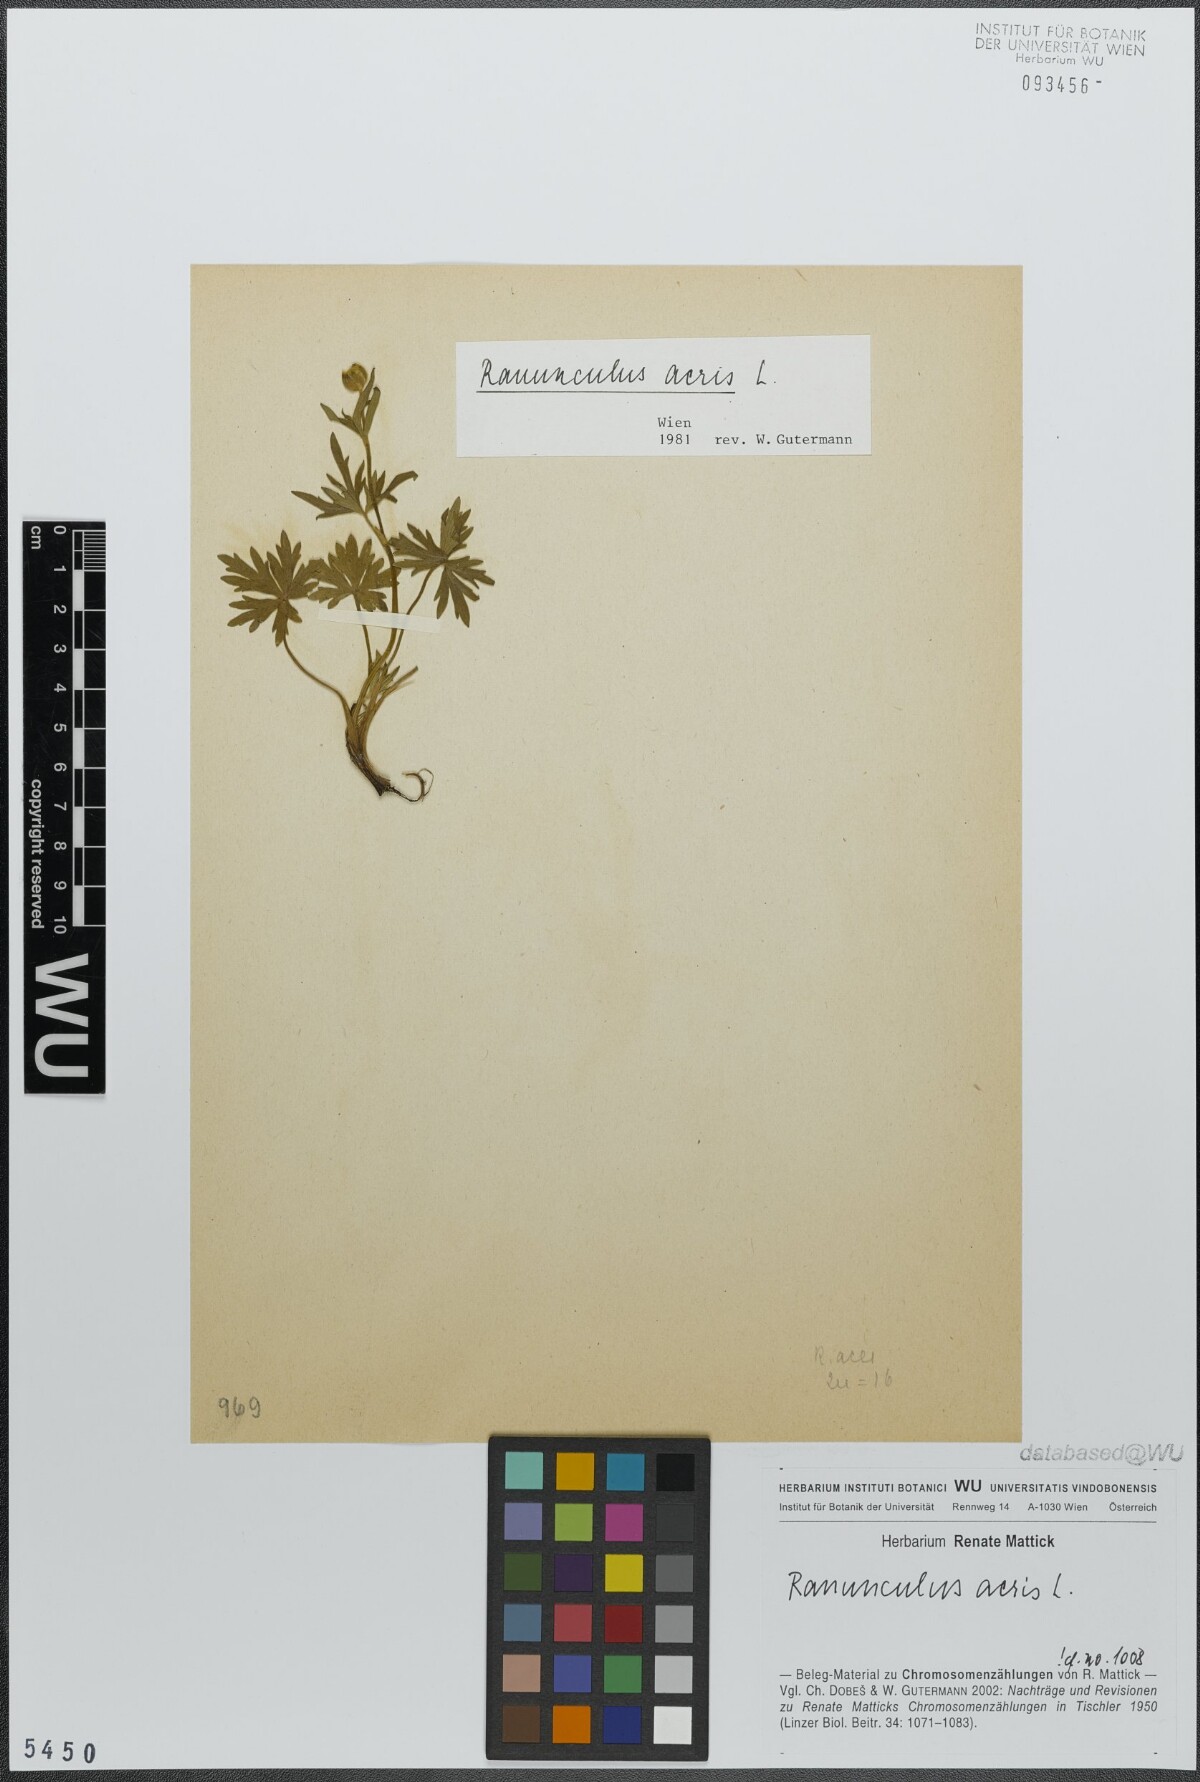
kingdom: Plantae
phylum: Tracheophyta
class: Magnoliopsida
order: Ranunculales
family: Ranunculaceae
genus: Ranunculus
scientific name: Ranunculus acris
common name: Meadow buttercup
